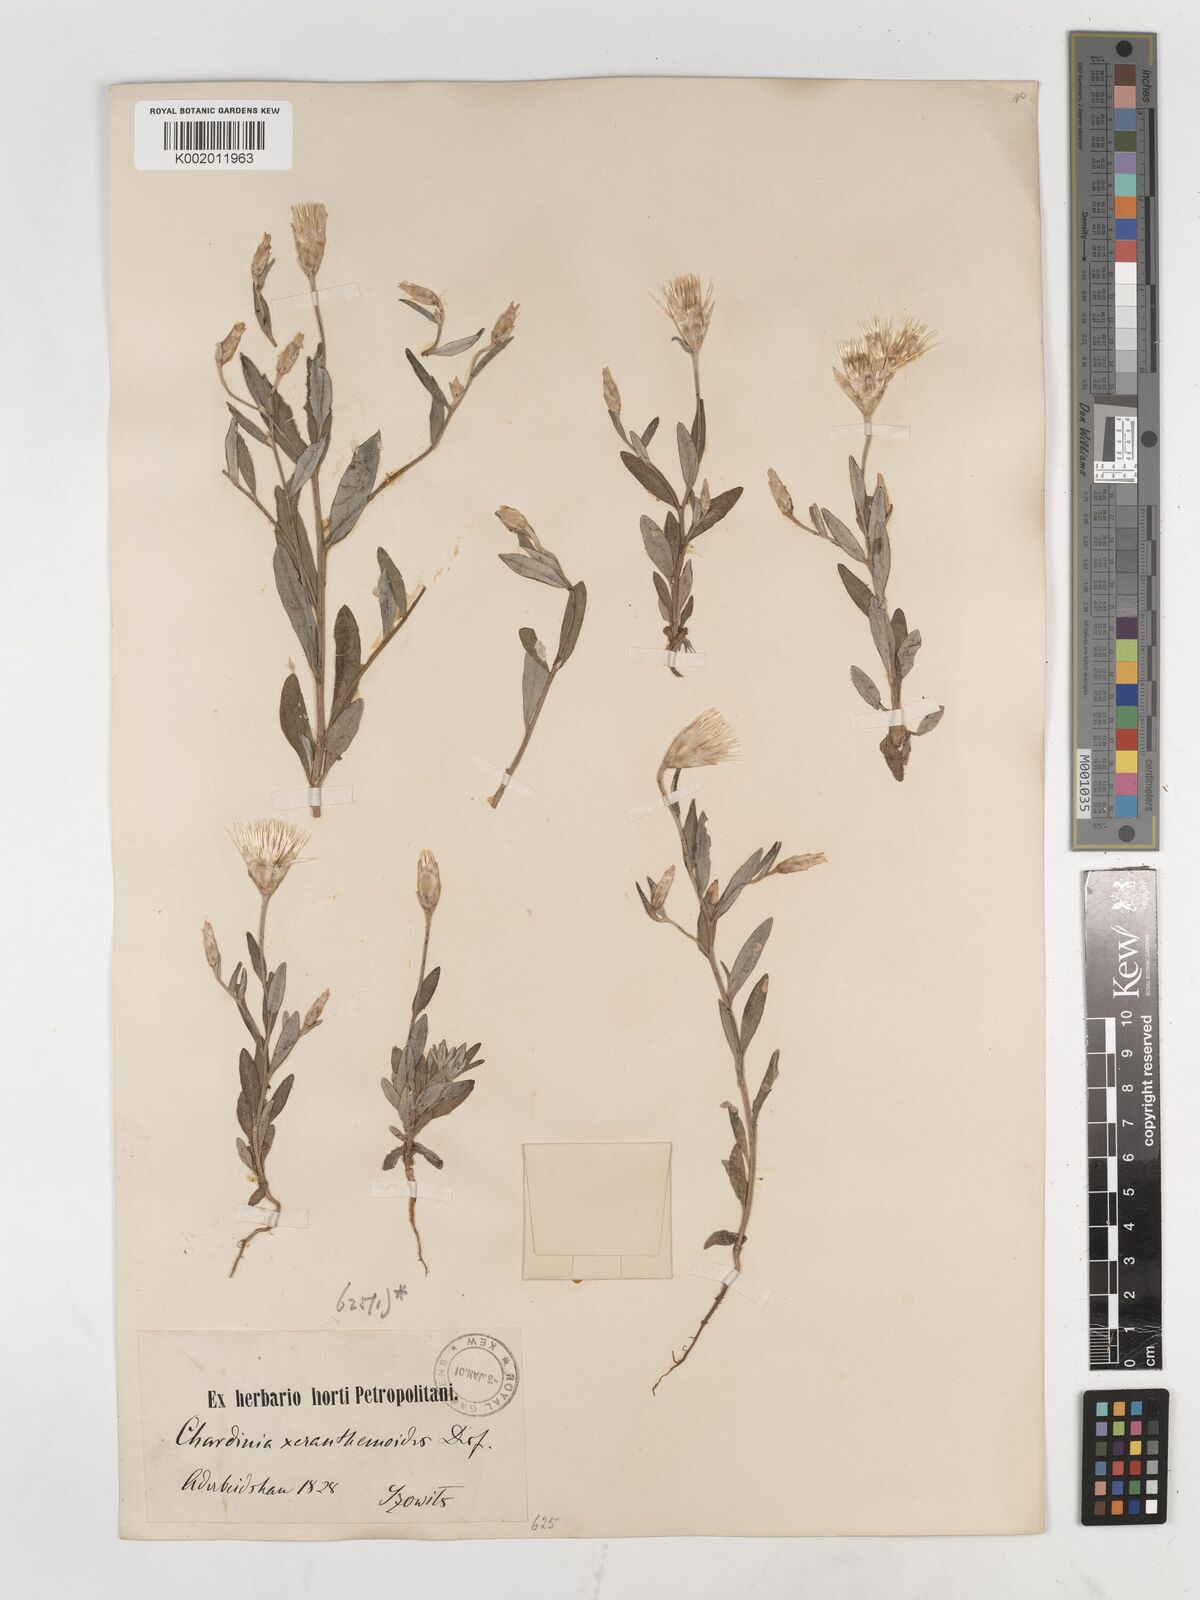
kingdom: Plantae
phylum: Tracheophyta
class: Magnoliopsida
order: Asterales
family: Asteraceae
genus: Chardinia
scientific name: Chardinia orientalis
